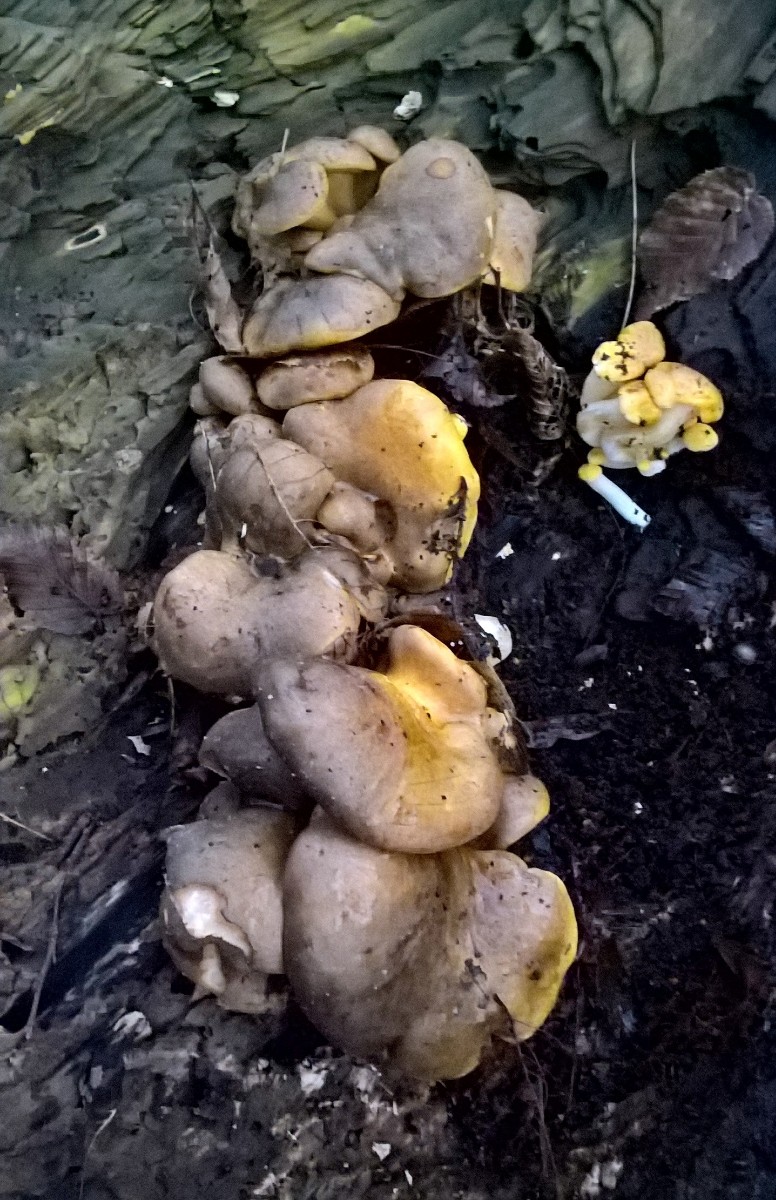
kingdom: Fungi
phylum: Basidiomycota
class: Agaricomycetes
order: Agaricales
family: Sarcomyxaceae
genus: Sarcomyxa
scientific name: Sarcomyxa serotina
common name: gummihat
